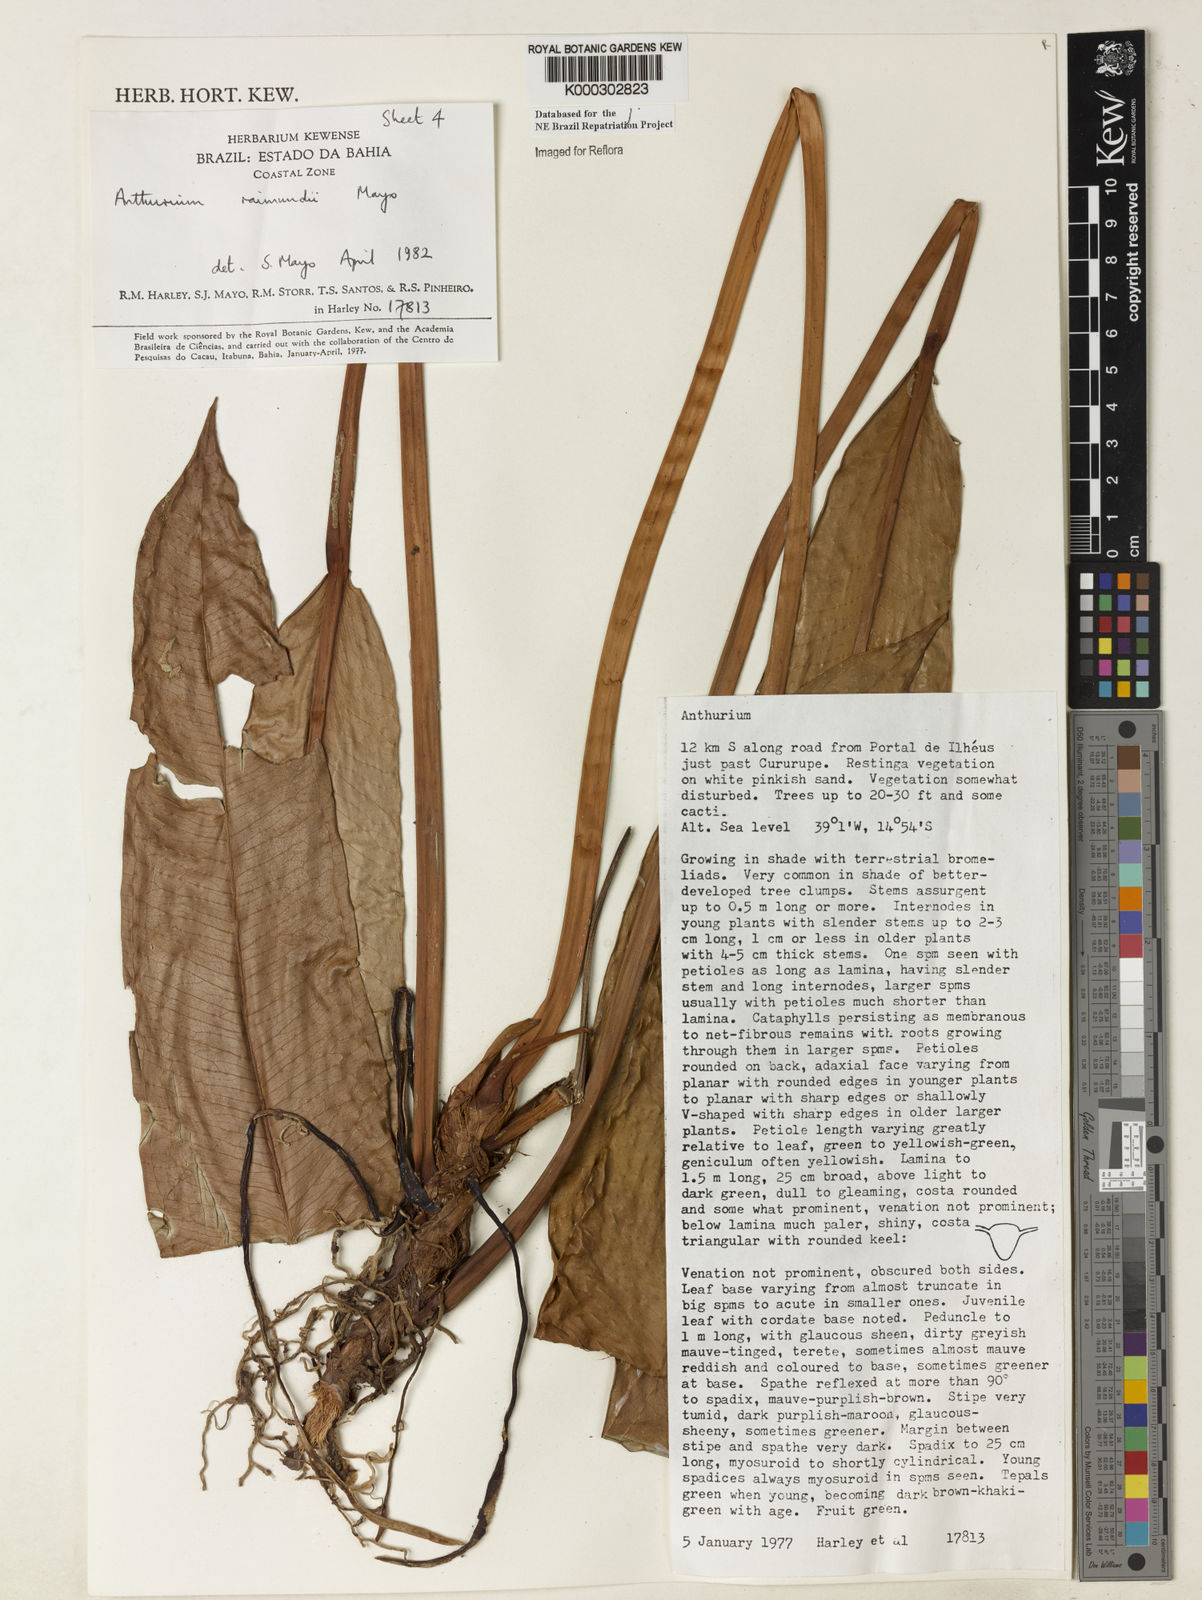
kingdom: Plantae
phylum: Tracheophyta
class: Liliopsida
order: Alismatales
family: Araceae
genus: Anthurium
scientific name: Anthurium raimundii
